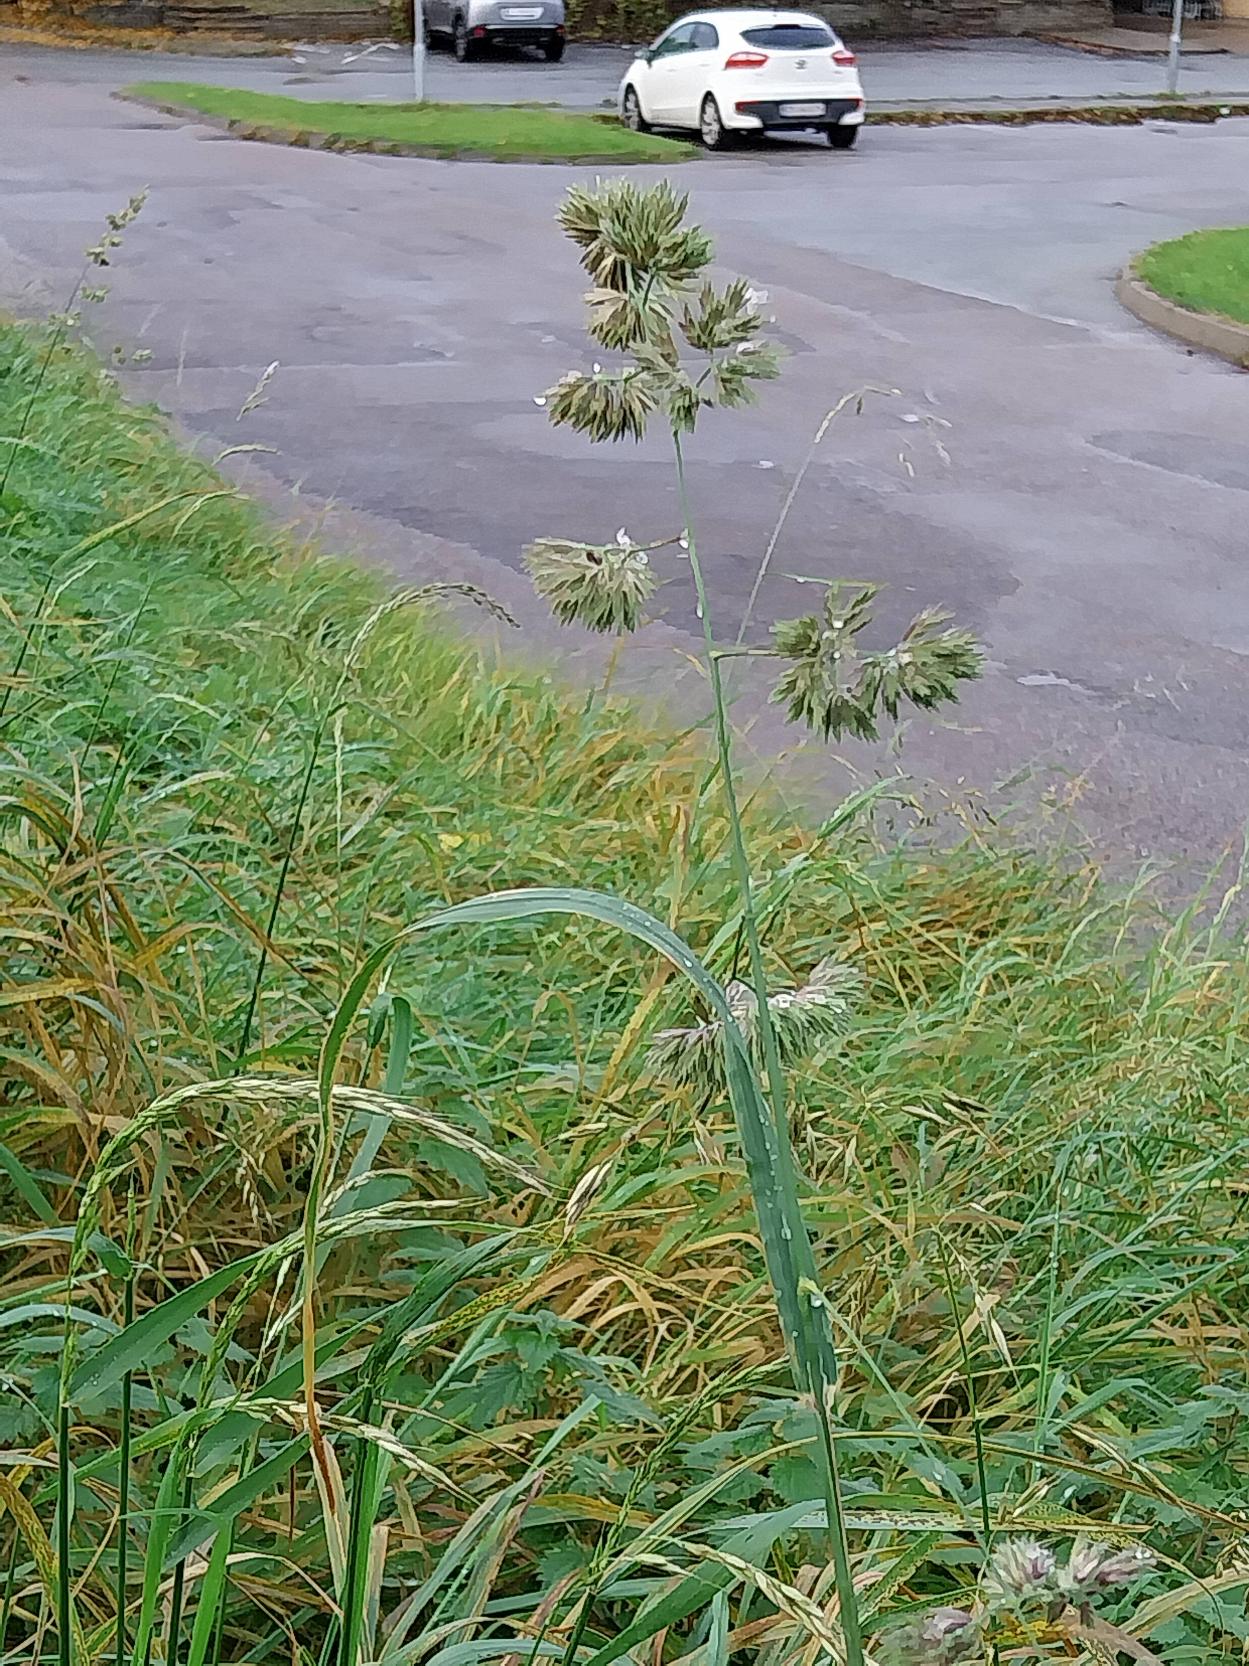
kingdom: Plantae
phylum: Tracheophyta
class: Liliopsida
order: Poales
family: Poaceae
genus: Dactylis
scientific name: Dactylis glomerata
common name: Almindelig hundegræs
